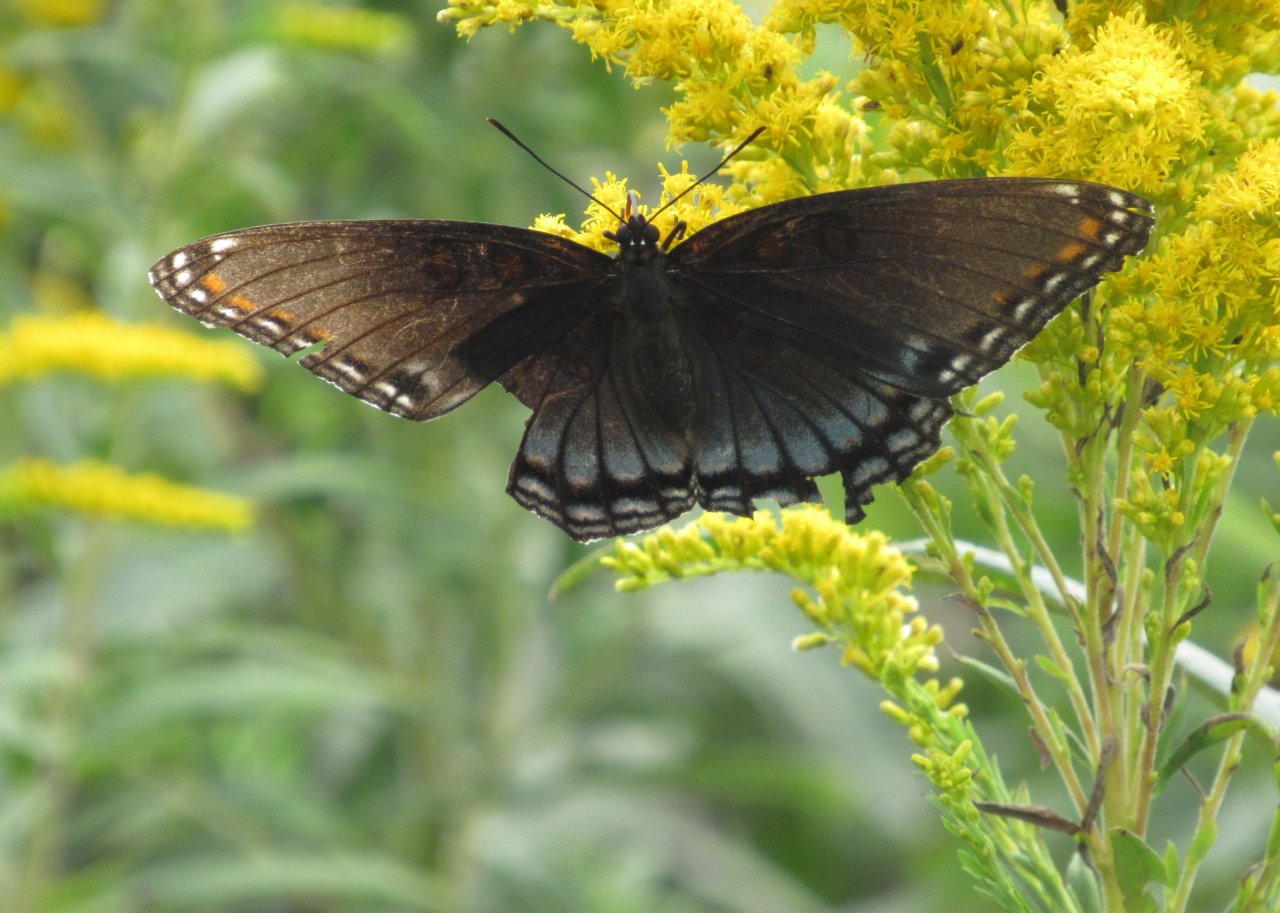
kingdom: Animalia
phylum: Arthropoda
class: Insecta
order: Lepidoptera
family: Nymphalidae
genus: Limenitis
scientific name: Limenitis astyanax
